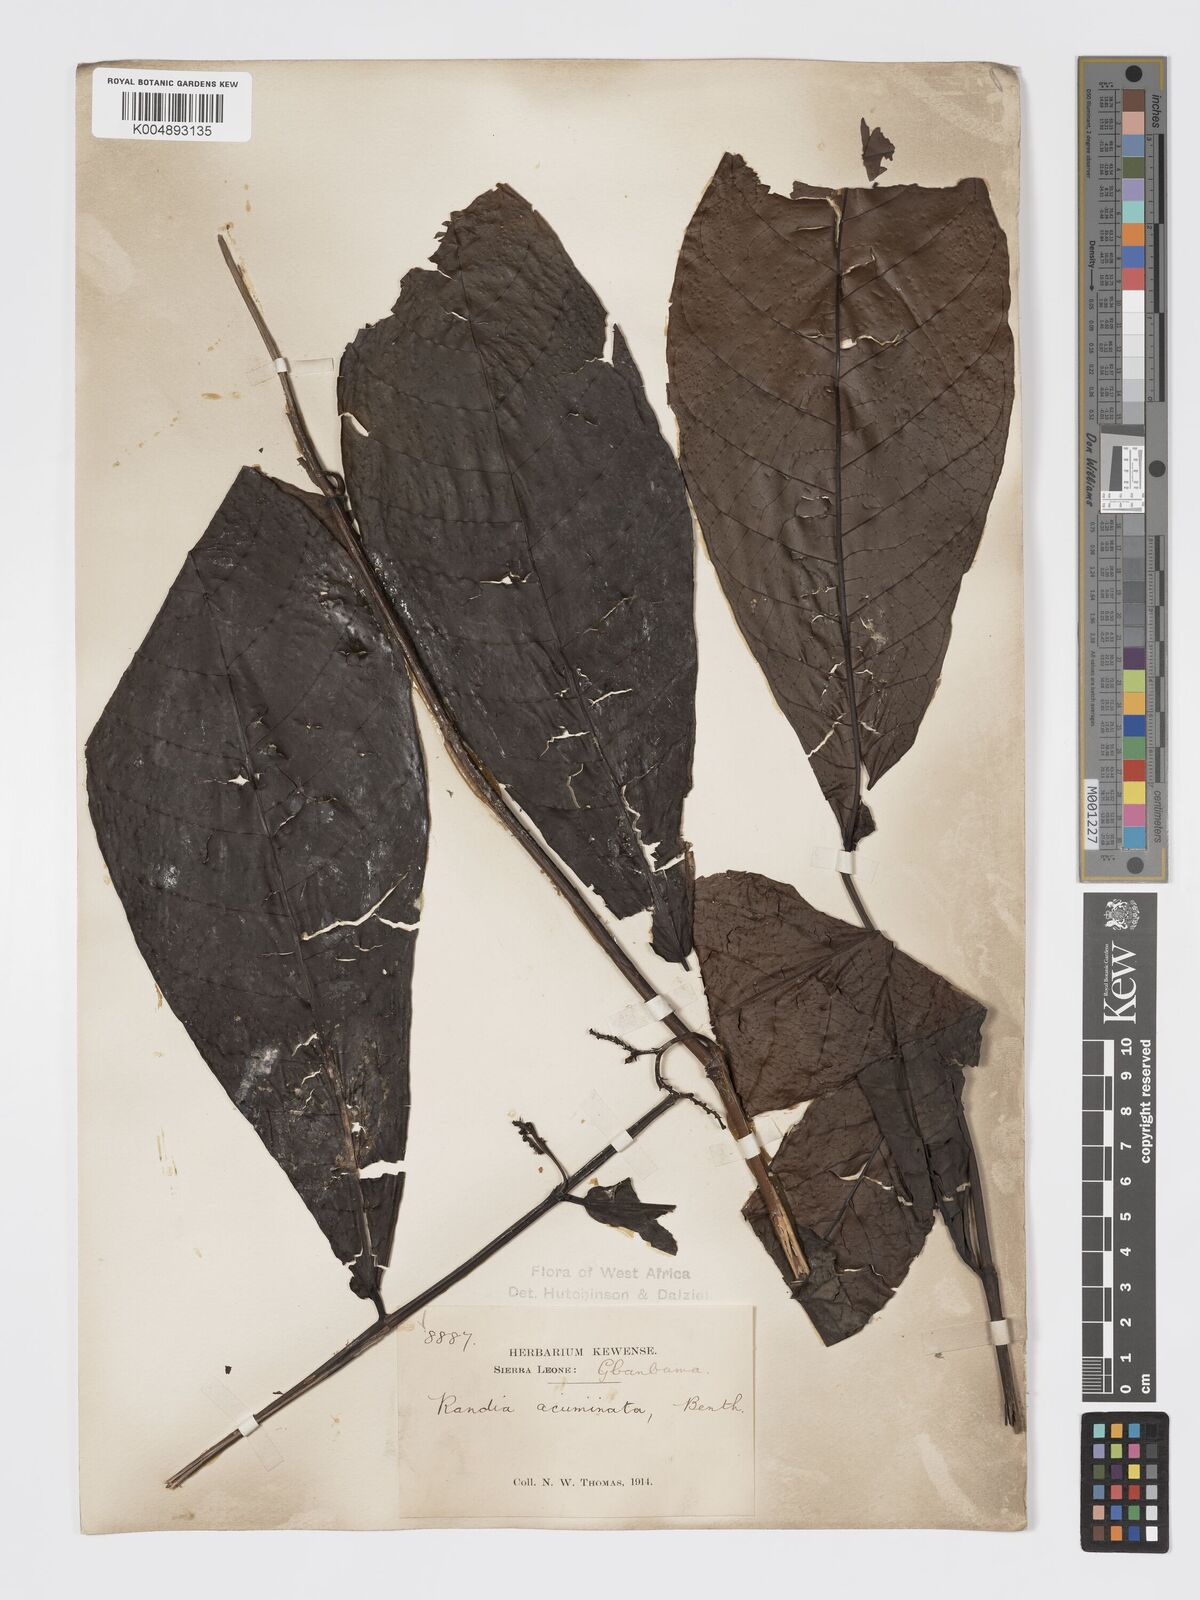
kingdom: Plantae
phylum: Tracheophyta
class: Magnoliopsida
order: Gentianales
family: Rubiaceae
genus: Massularia
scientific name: Massularia acuminata
